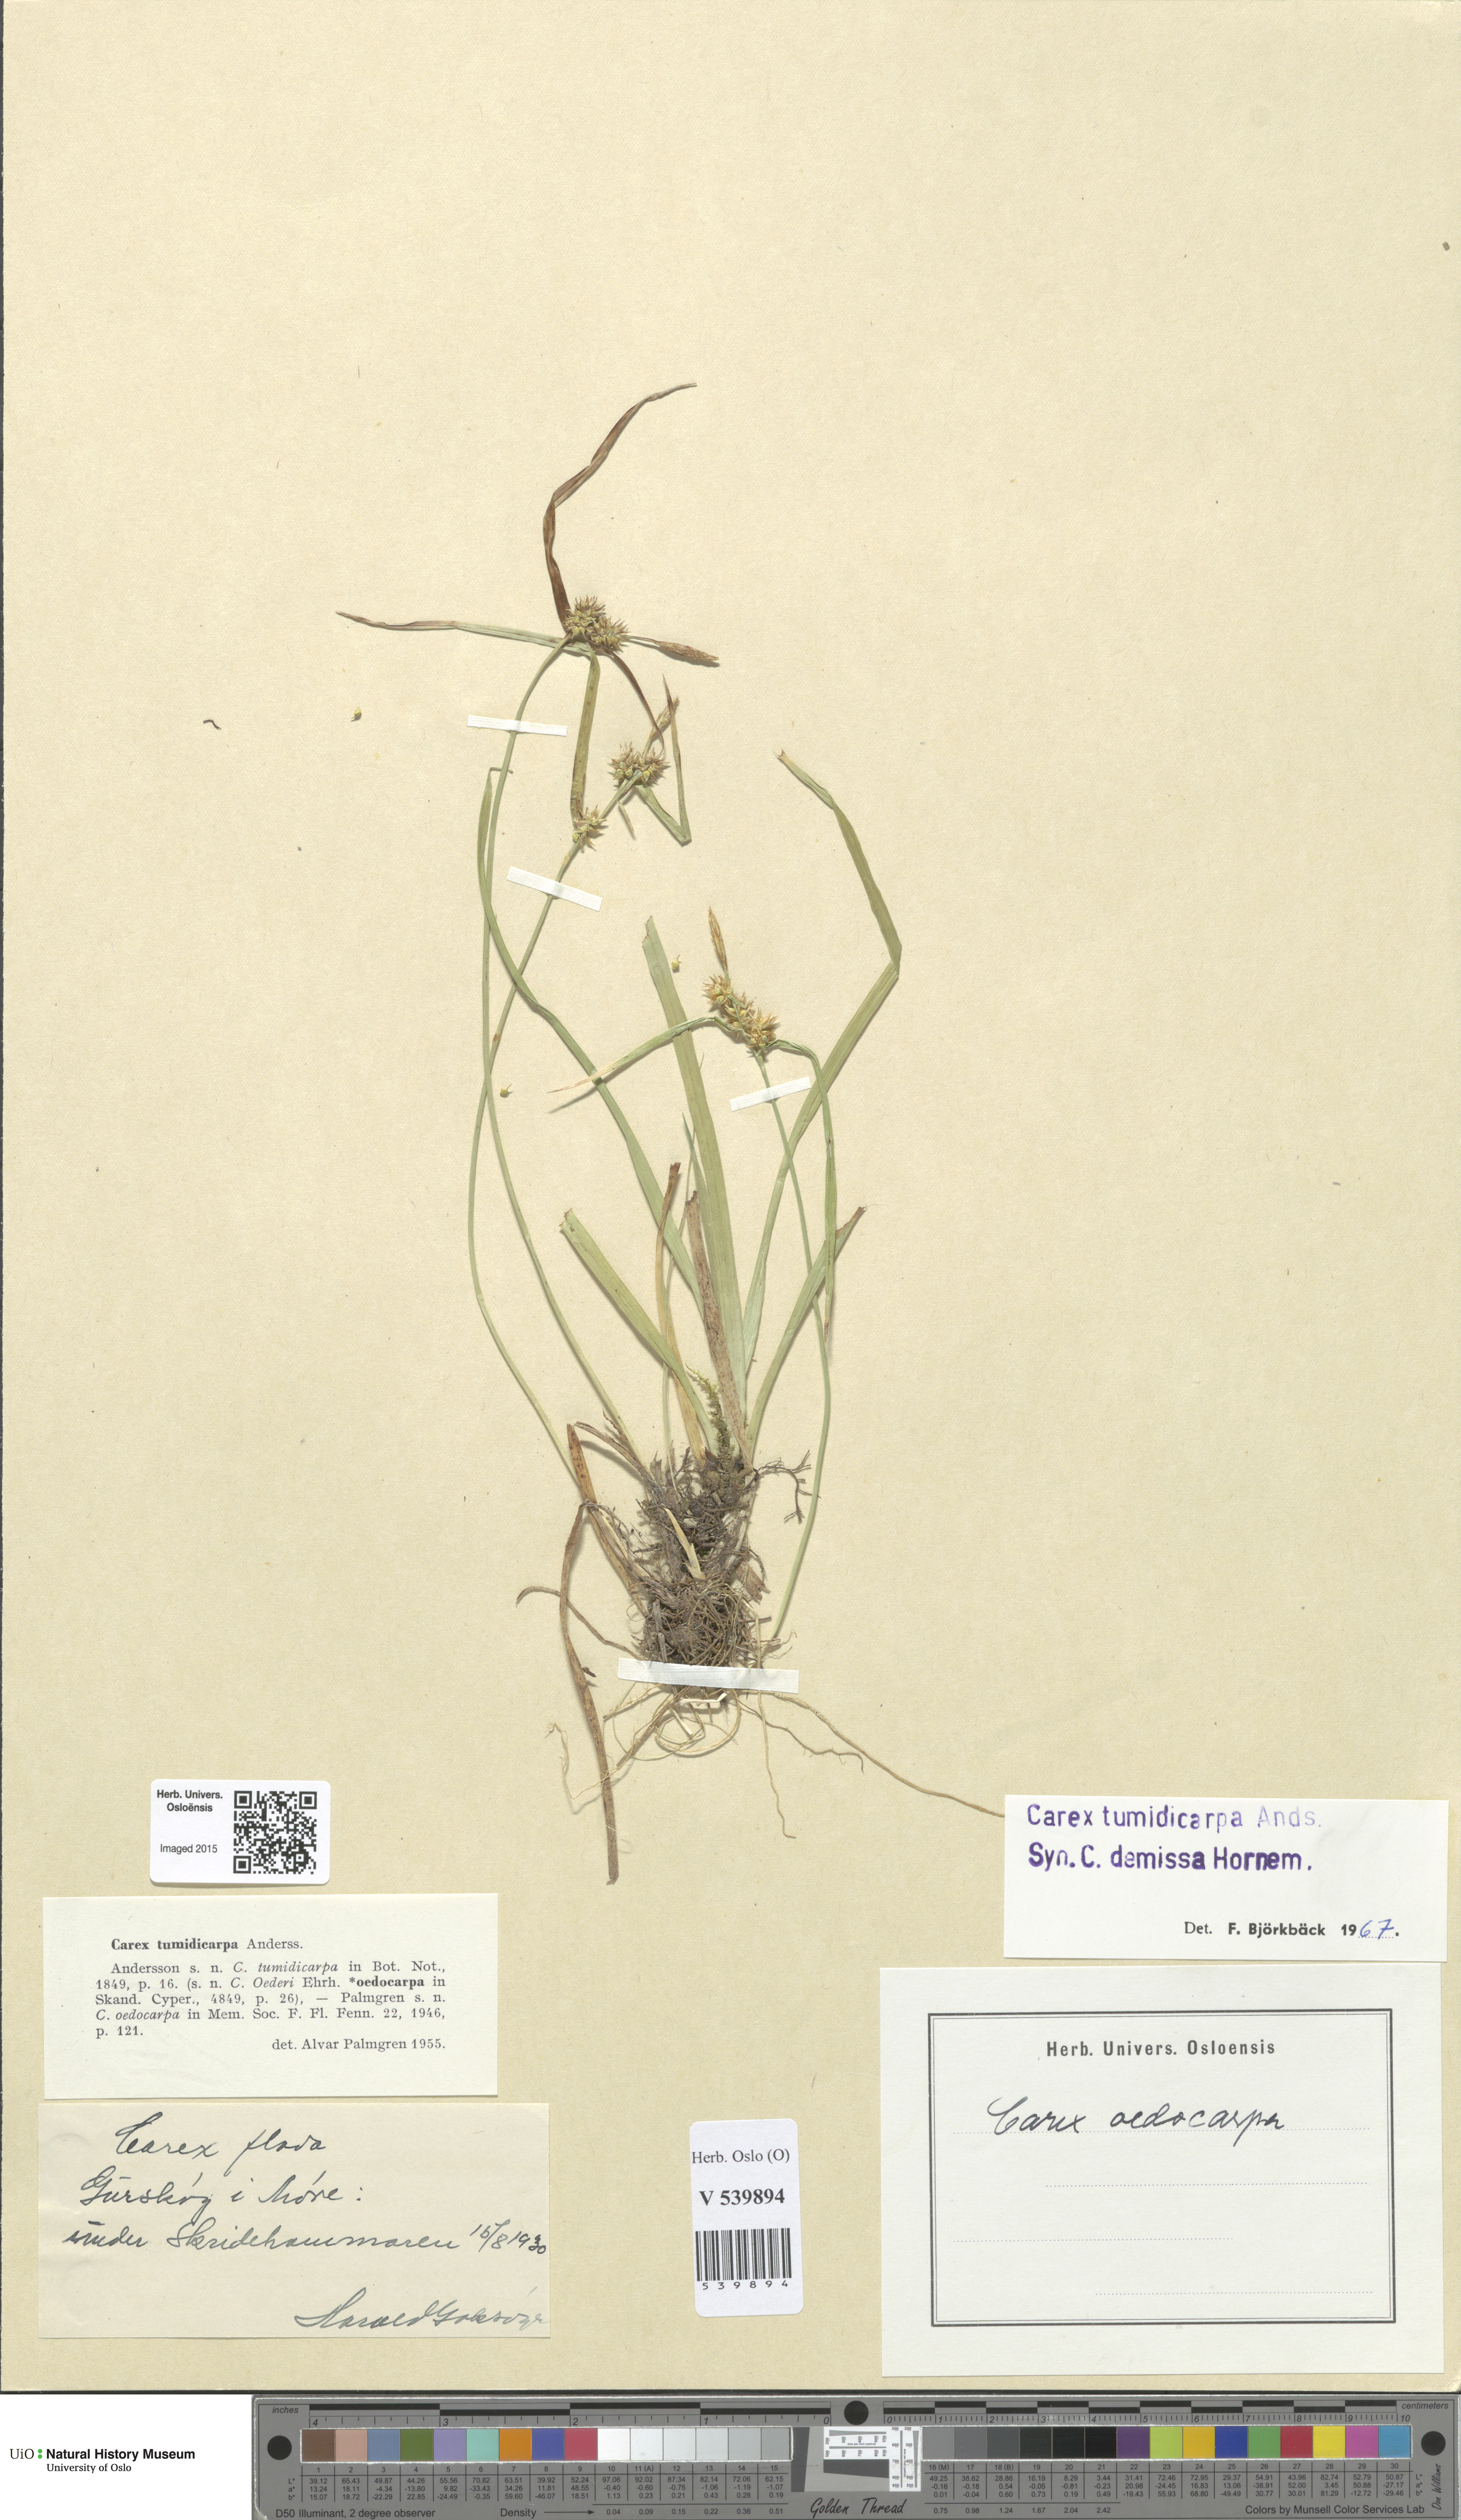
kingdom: Plantae
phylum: Tracheophyta
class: Liliopsida
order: Poales
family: Cyperaceae
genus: Carex
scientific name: Carex demissa
